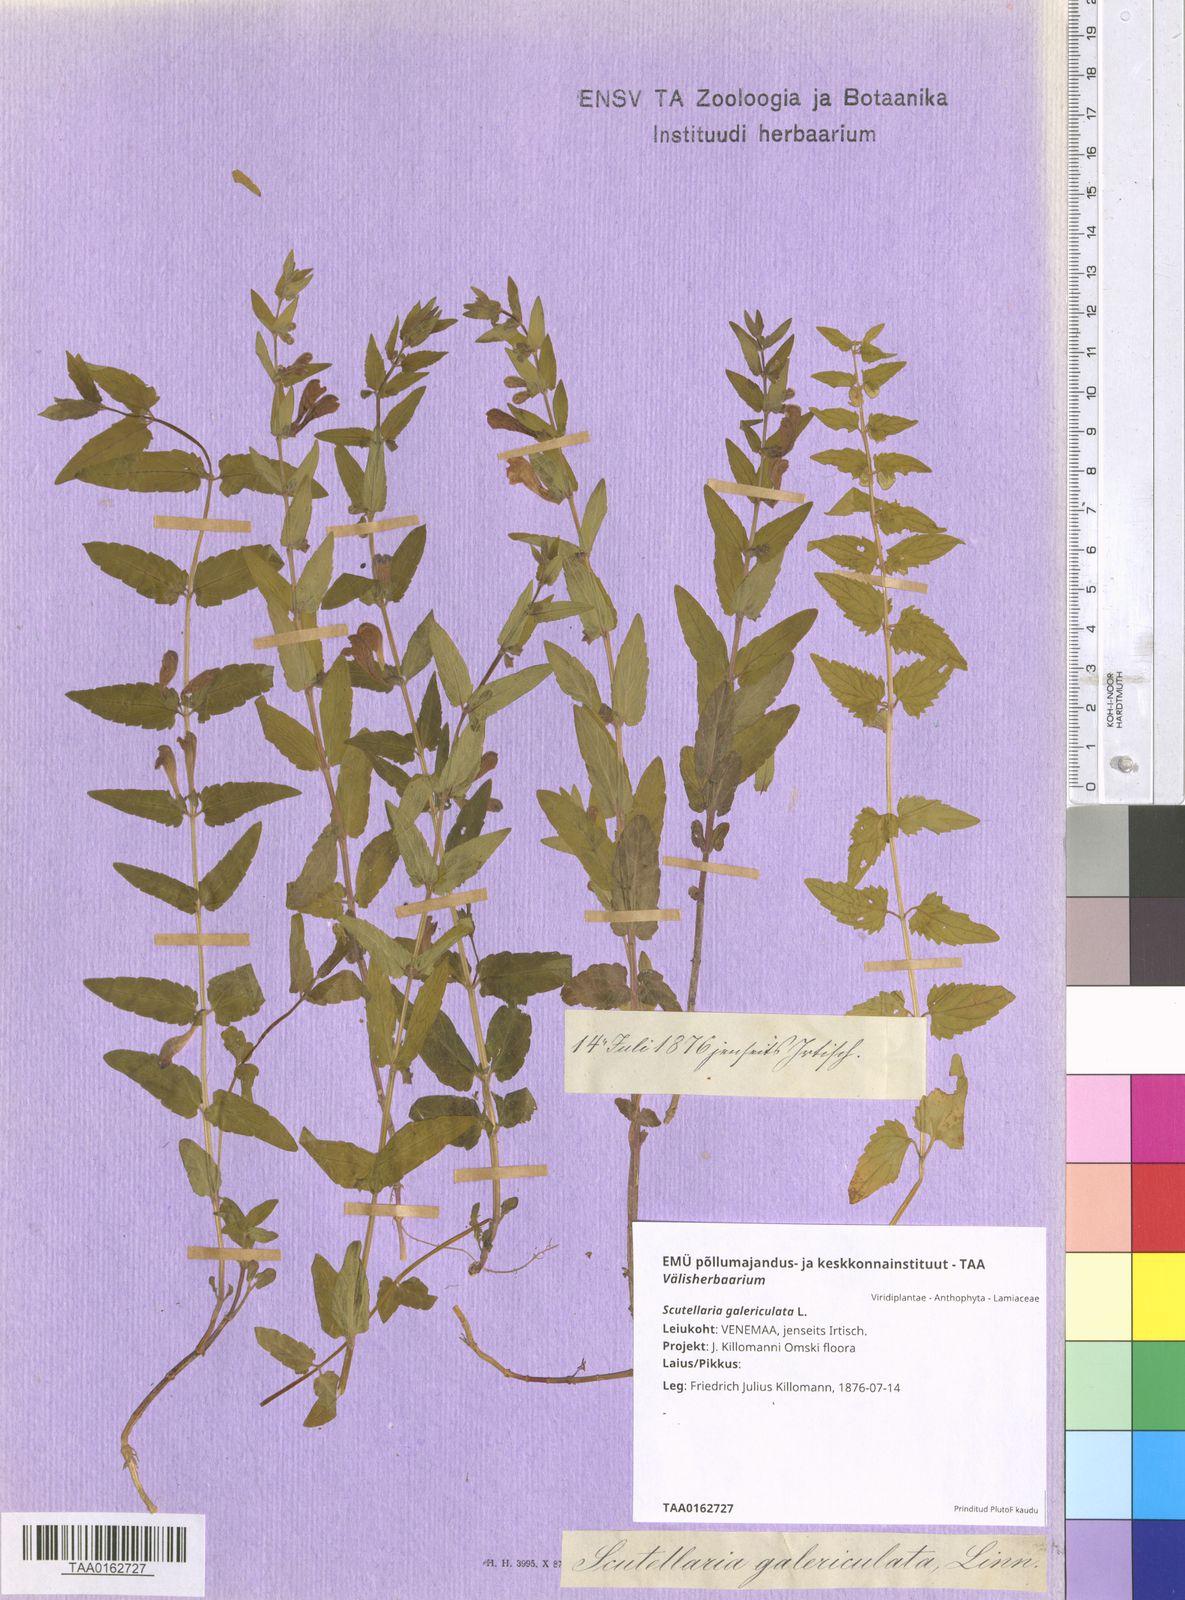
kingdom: Plantae
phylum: Tracheophyta
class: Magnoliopsida
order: Lamiales
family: Lamiaceae
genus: Scutellaria
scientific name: Scutellaria galericulata
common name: Skullcap
